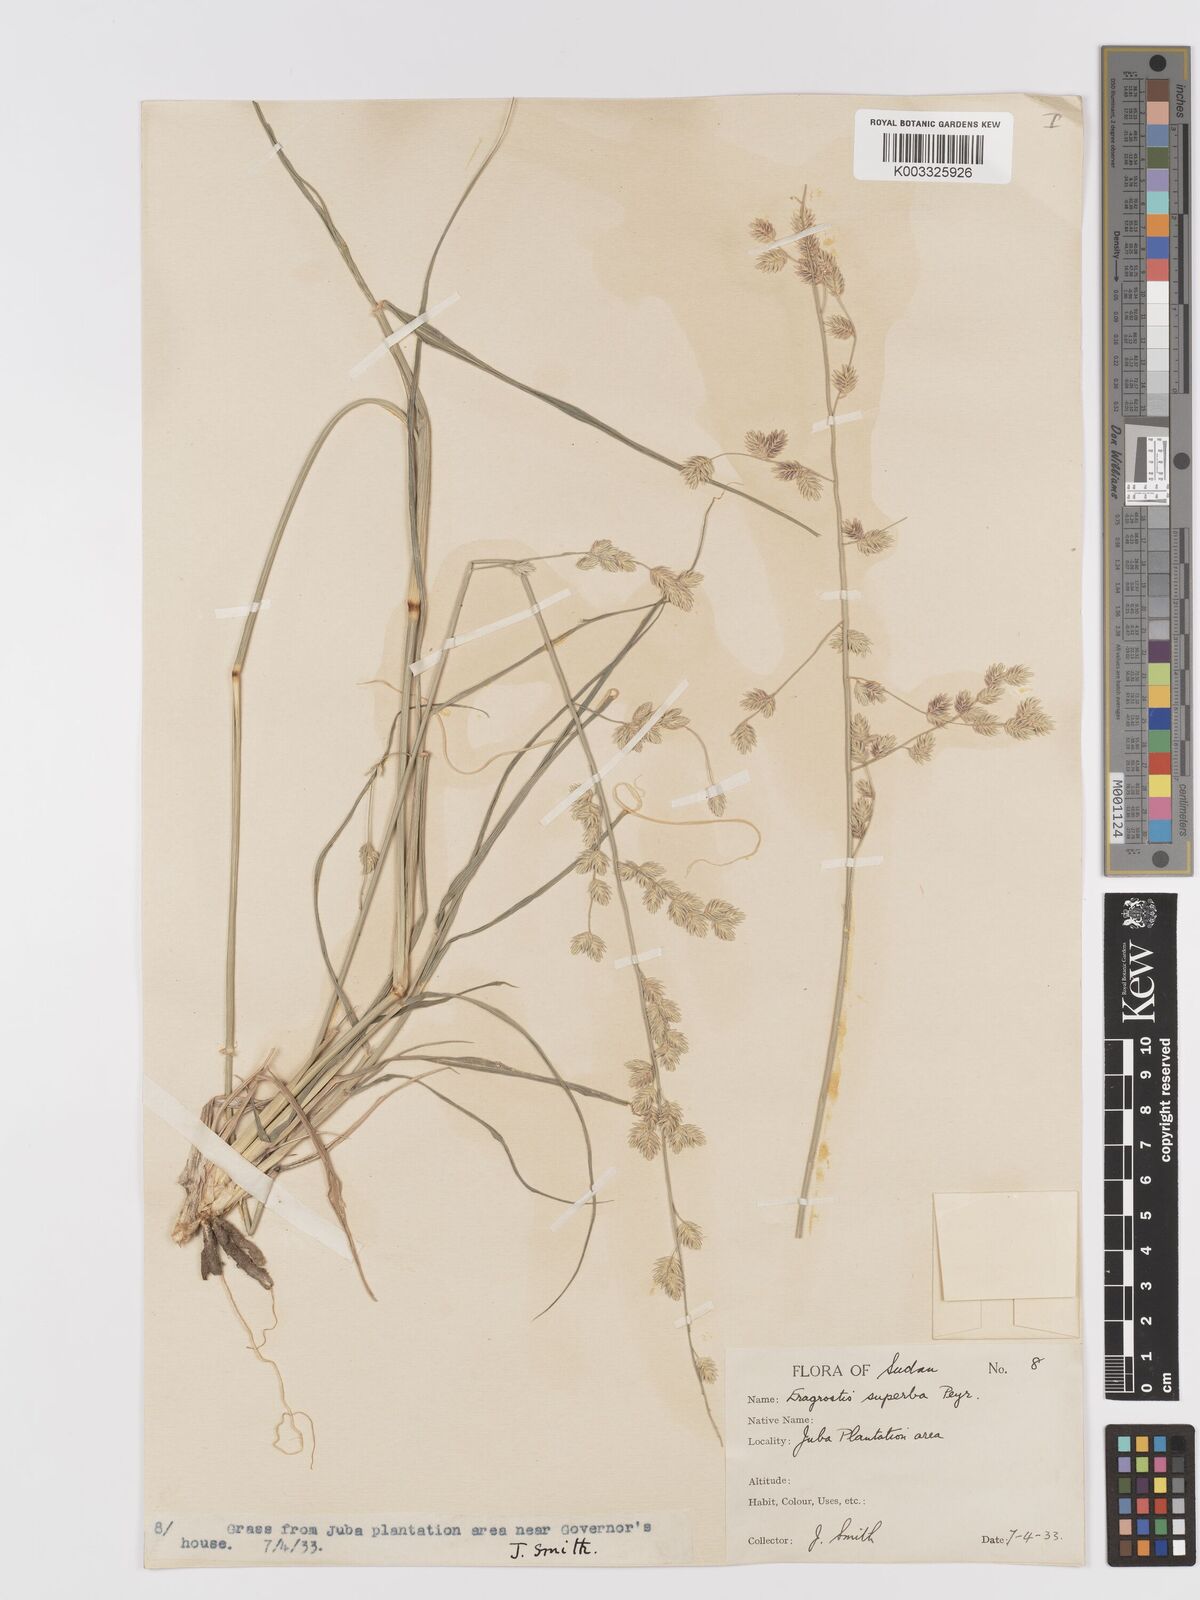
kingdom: Plantae
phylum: Tracheophyta
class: Liliopsida
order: Poales
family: Poaceae
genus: Eragrostis
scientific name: Eragrostis superba
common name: Wilman lovegrass
